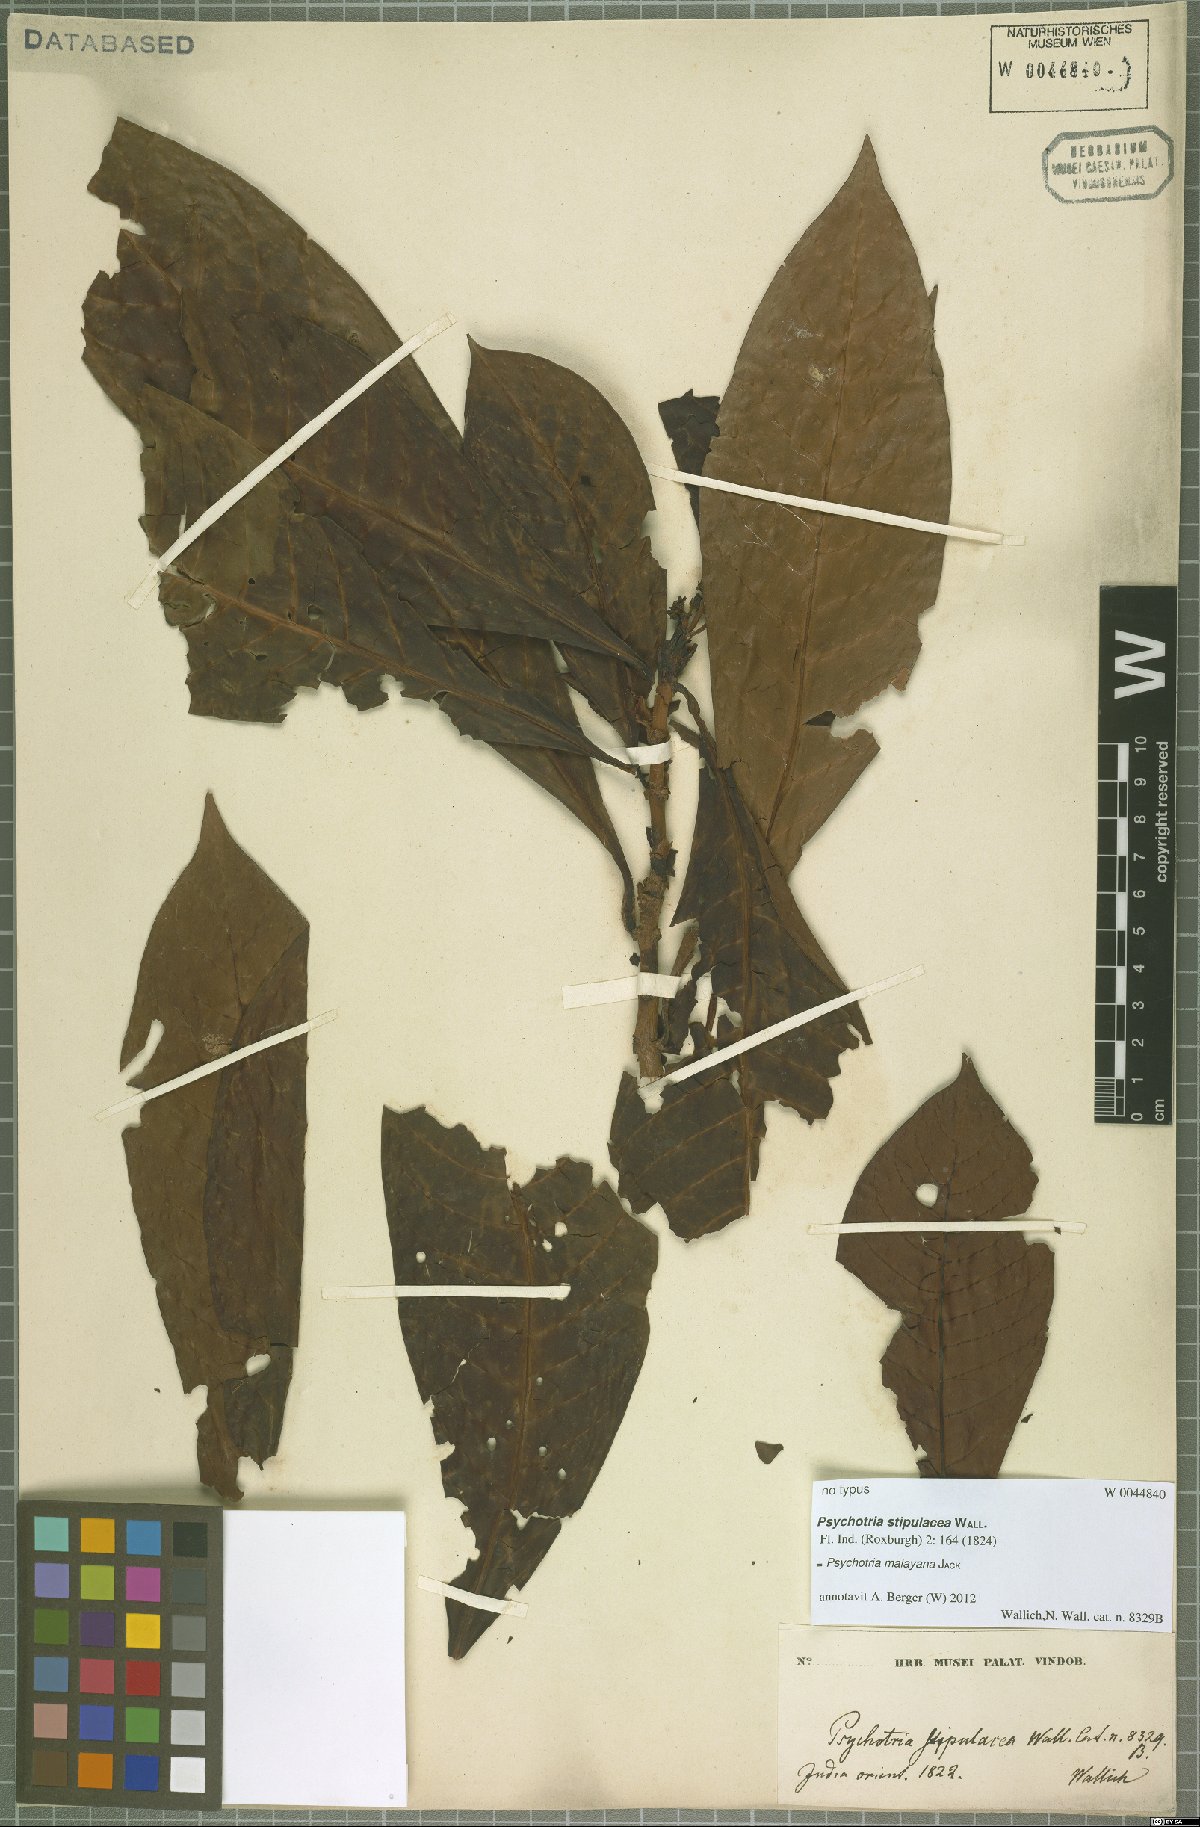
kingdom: Plantae
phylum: Tracheophyta
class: Magnoliopsida
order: Gentianales
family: Rubiaceae
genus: Psychotria
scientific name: Psychotria malayana
